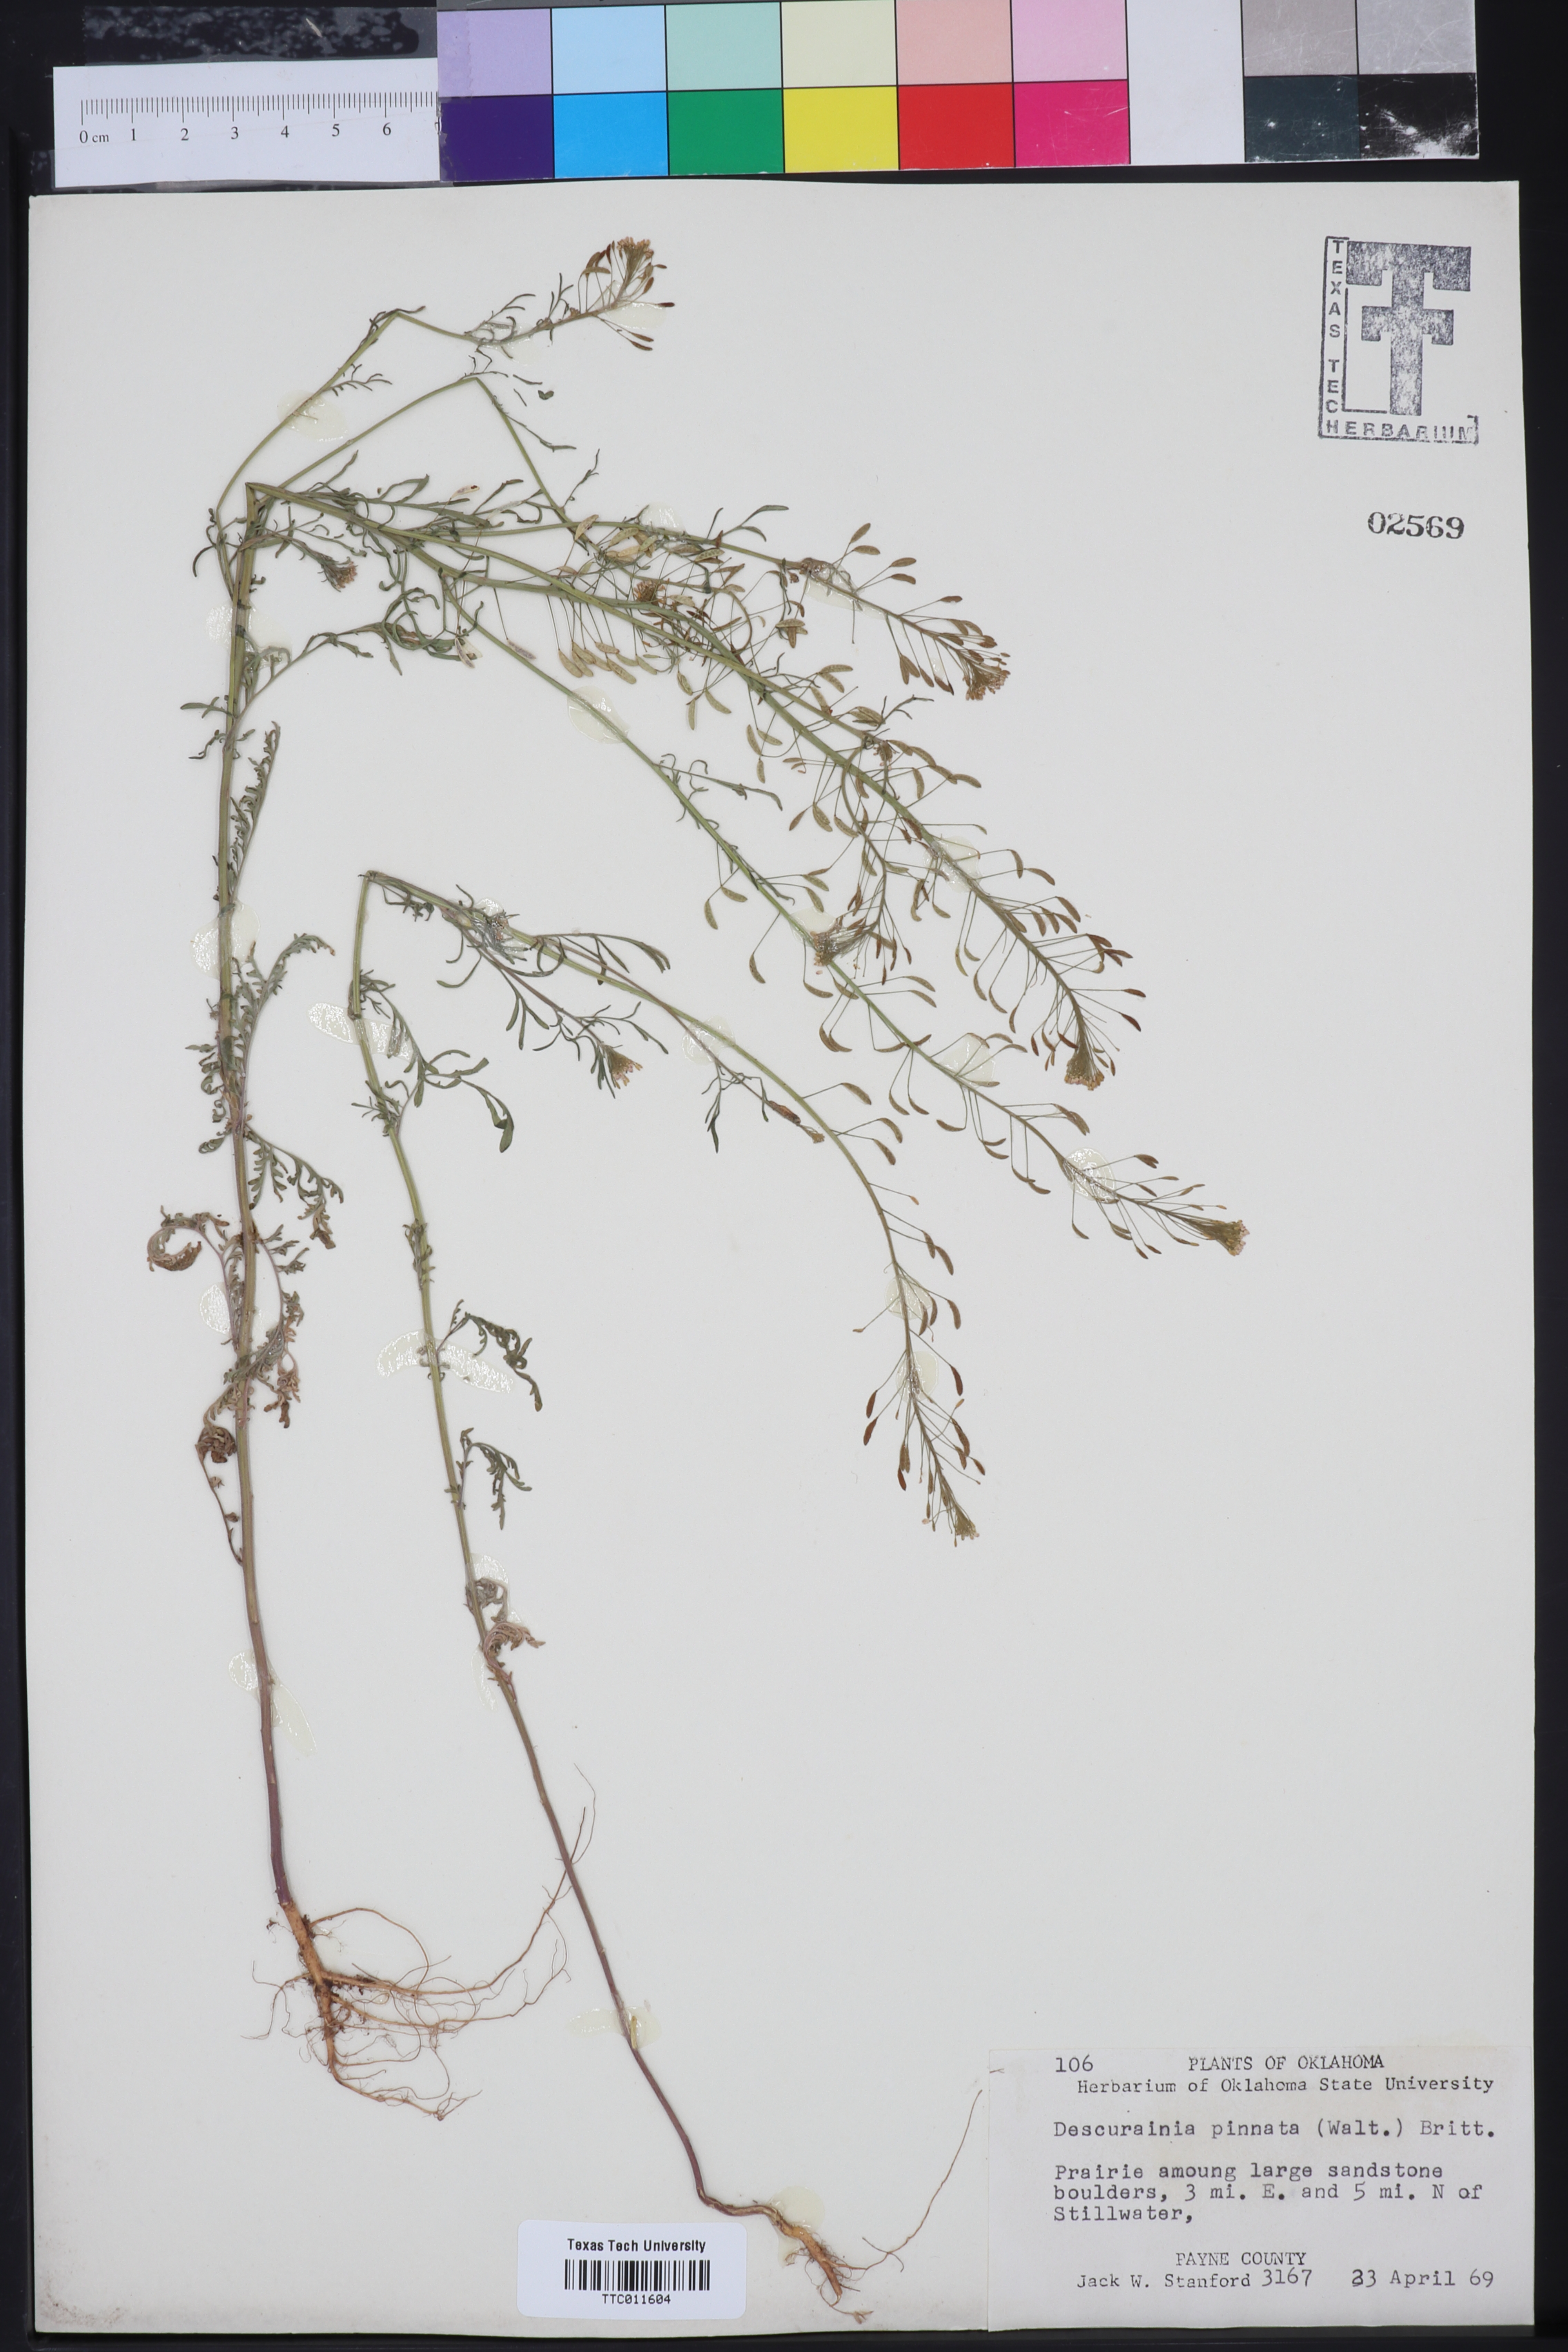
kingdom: Plantae
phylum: Tracheophyta
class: Magnoliopsida
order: Brassicales
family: Brassicaceae
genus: Descurainia
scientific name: Descurainia pinnata
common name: Western tansy mustard
